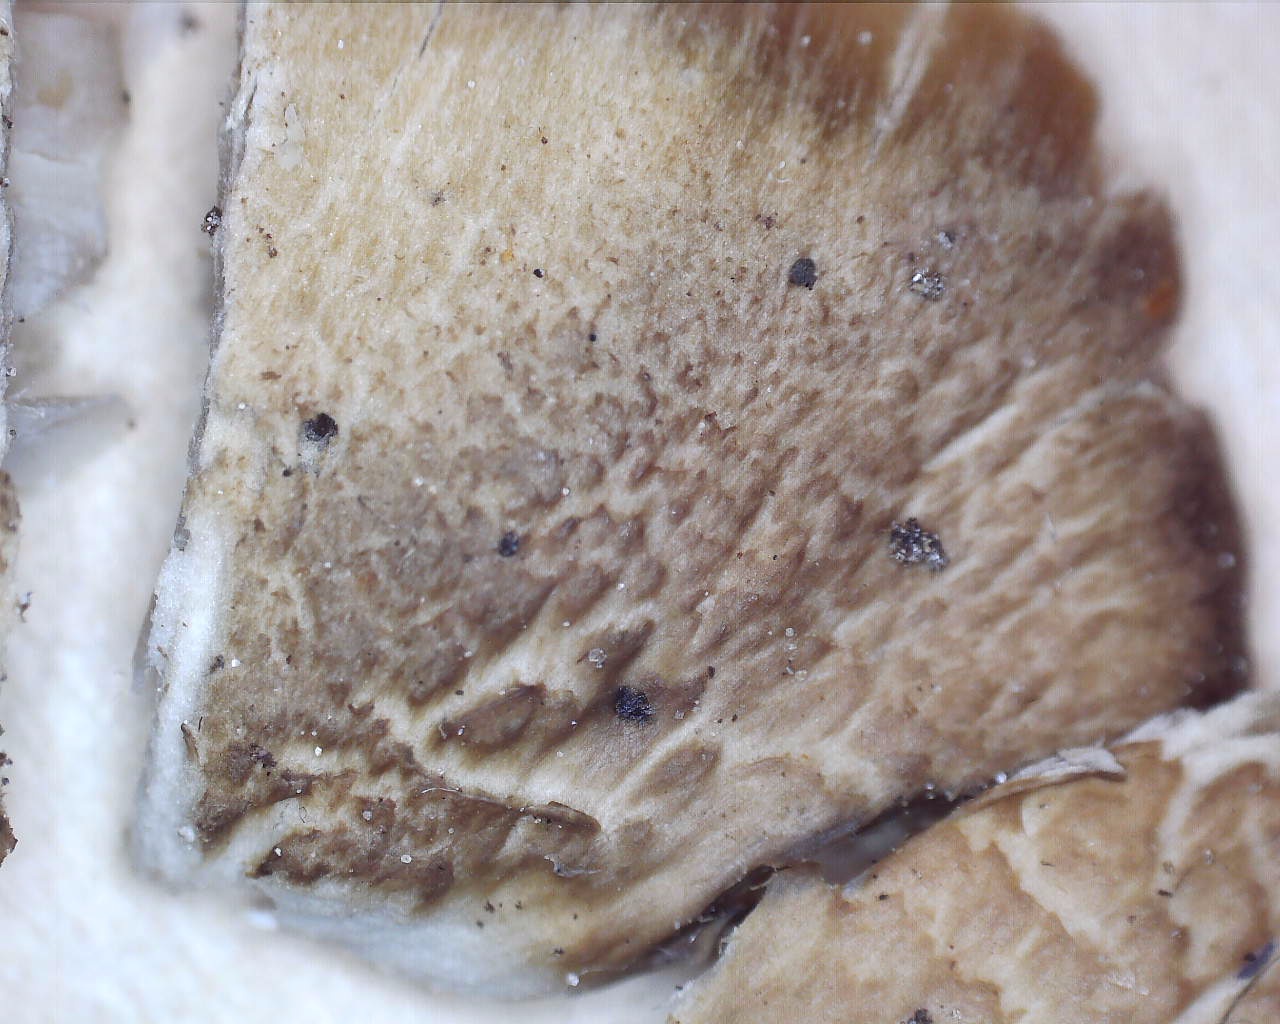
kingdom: Fungi
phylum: Basidiomycota
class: Agaricomycetes
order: Agaricales
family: Clavariaceae
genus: Camarophyllopsis
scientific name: Camarophyllopsis schulzeri
